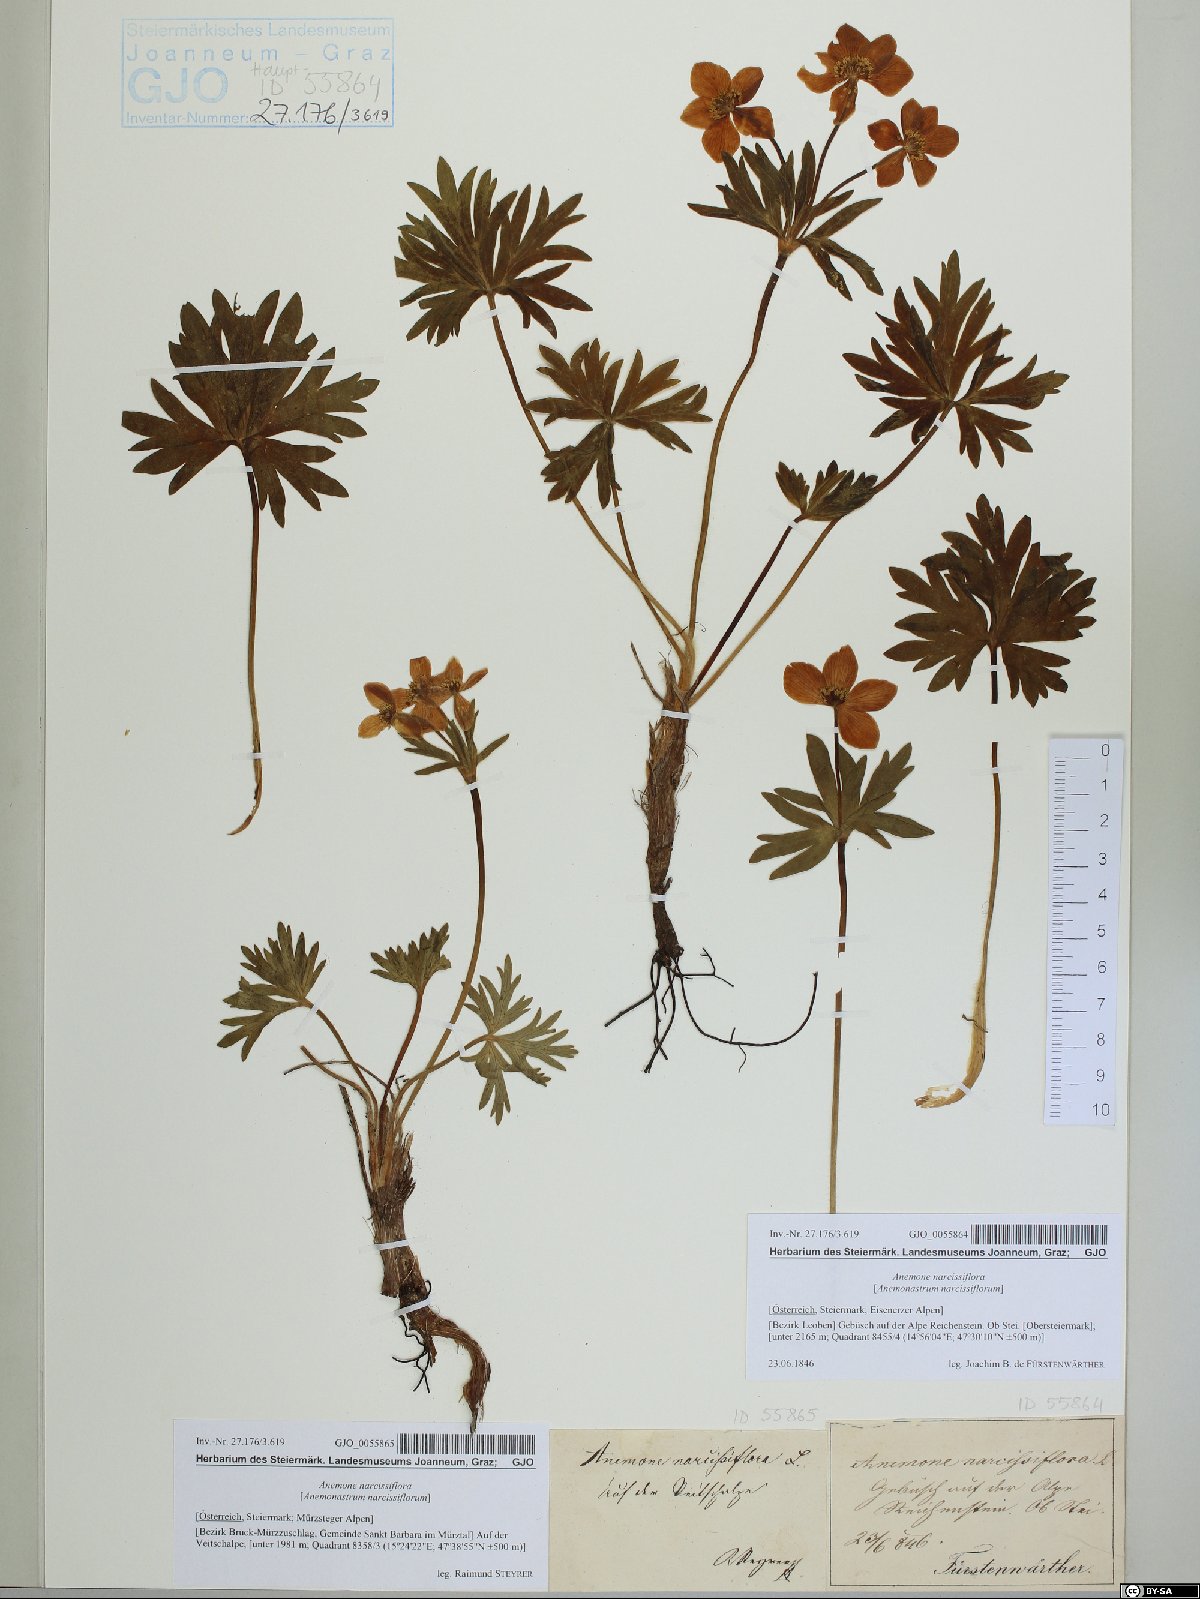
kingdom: Plantae
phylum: Tracheophyta
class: Magnoliopsida
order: Ranunculales
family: Ranunculaceae
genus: Anemonastrum
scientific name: Anemonastrum narcissiflorum
